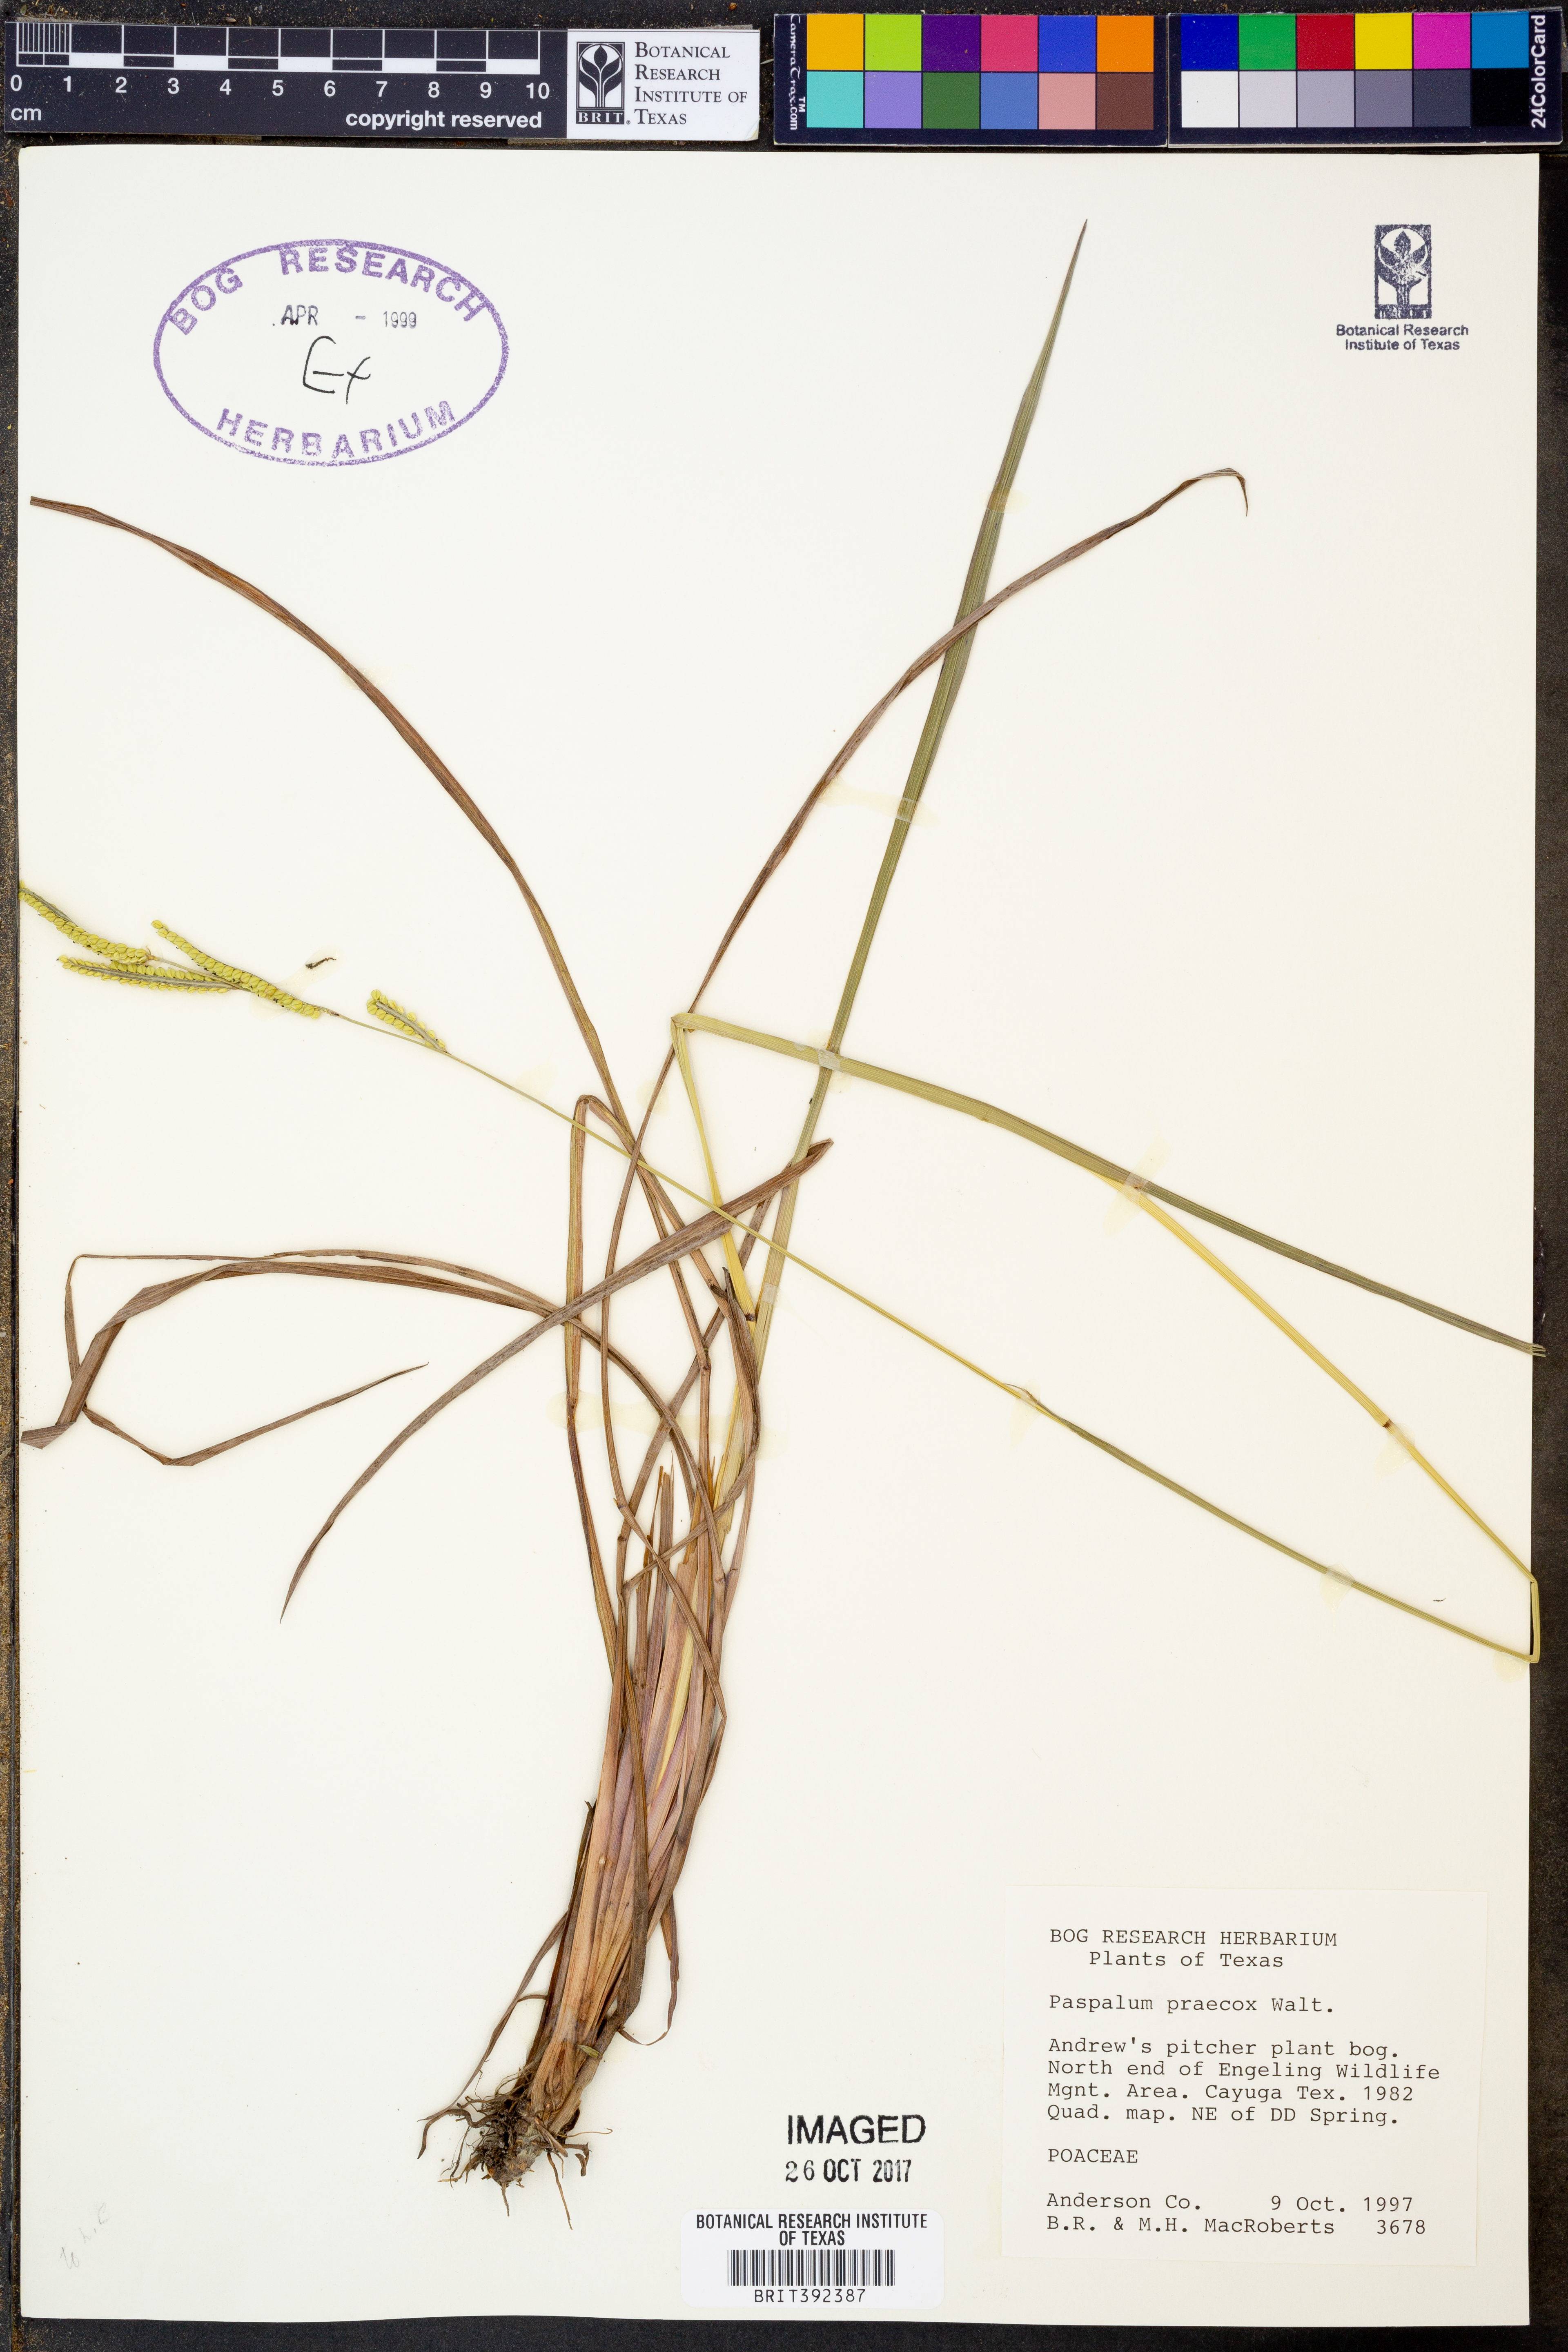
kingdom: Plantae
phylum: Tracheophyta
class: Liliopsida
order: Poales
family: Poaceae
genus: Paspalum
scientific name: Paspalum praecox
